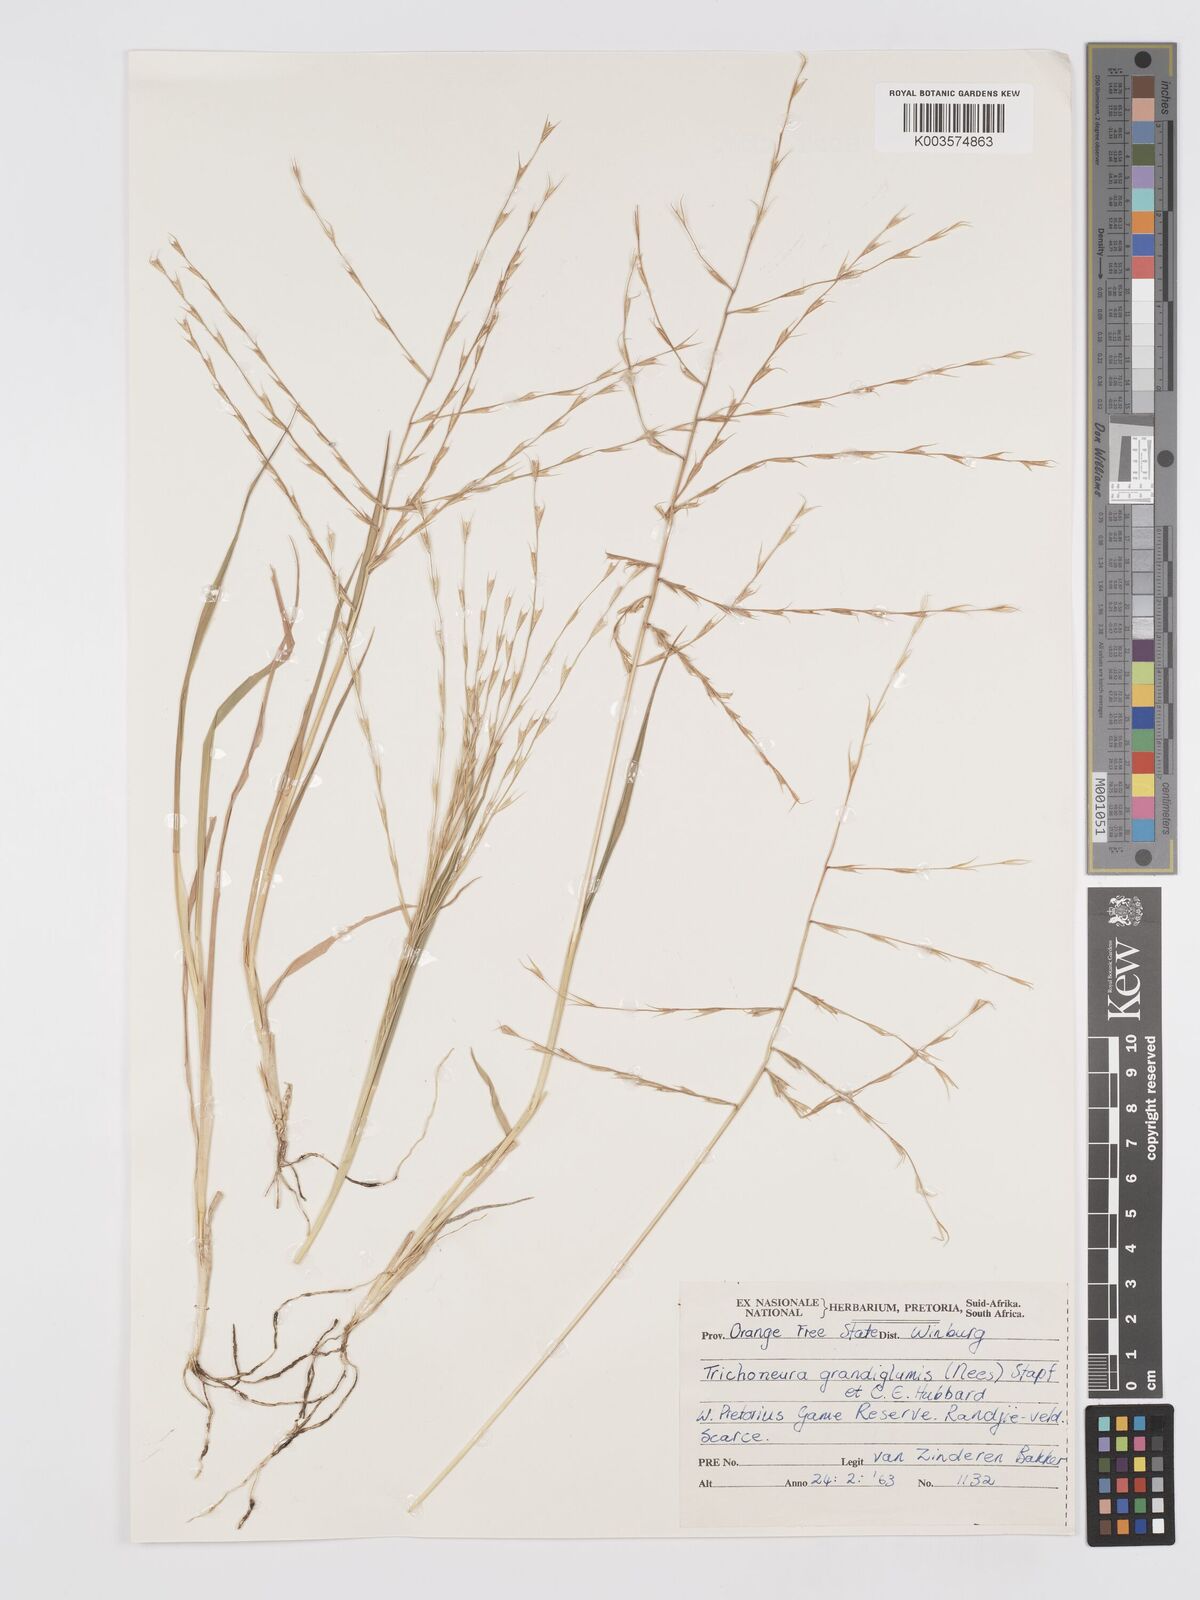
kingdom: Plantae
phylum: Tracheophyta
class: Liliopsida
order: Poales
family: Poaceae
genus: Trichoneura
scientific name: Trichoneura grandiglumis
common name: Rolling grass
